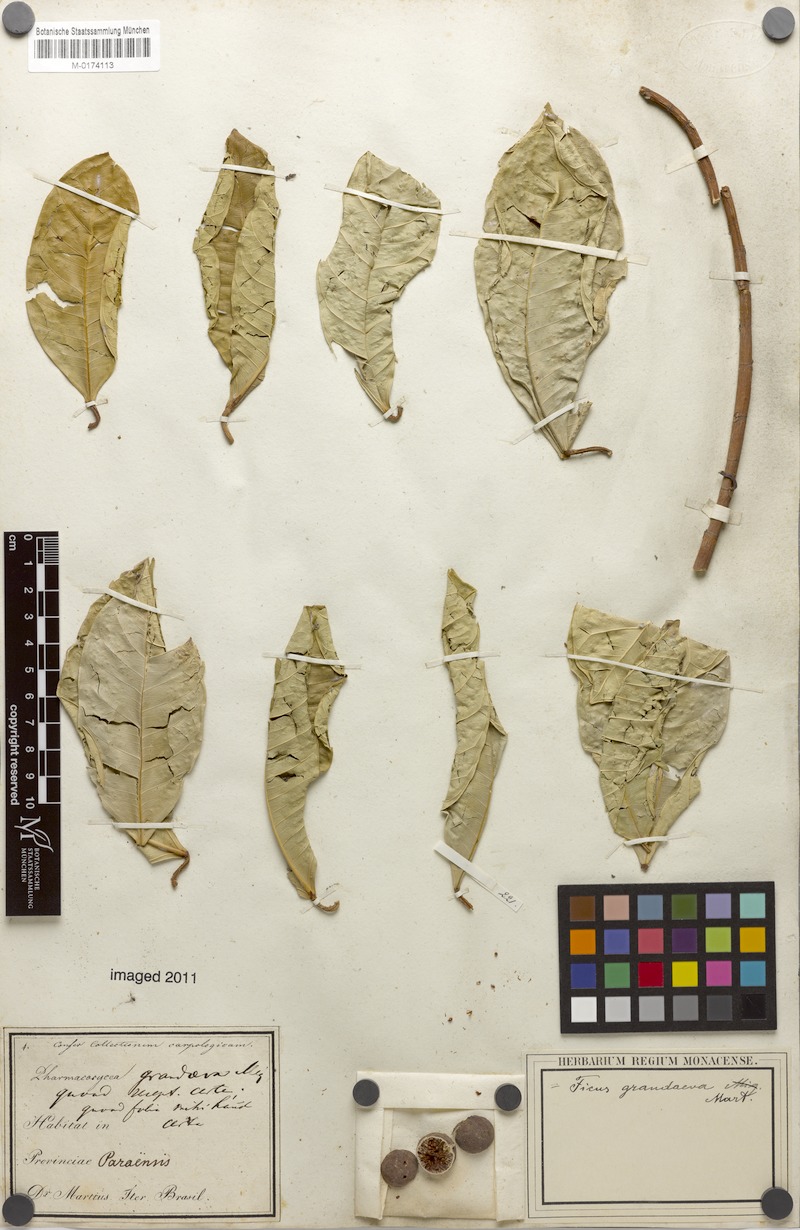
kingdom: Plantae
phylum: Tracheophyta
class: Magnoliopsida
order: Rosales
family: Moraceae
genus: Ficus
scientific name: Ficus maxima
